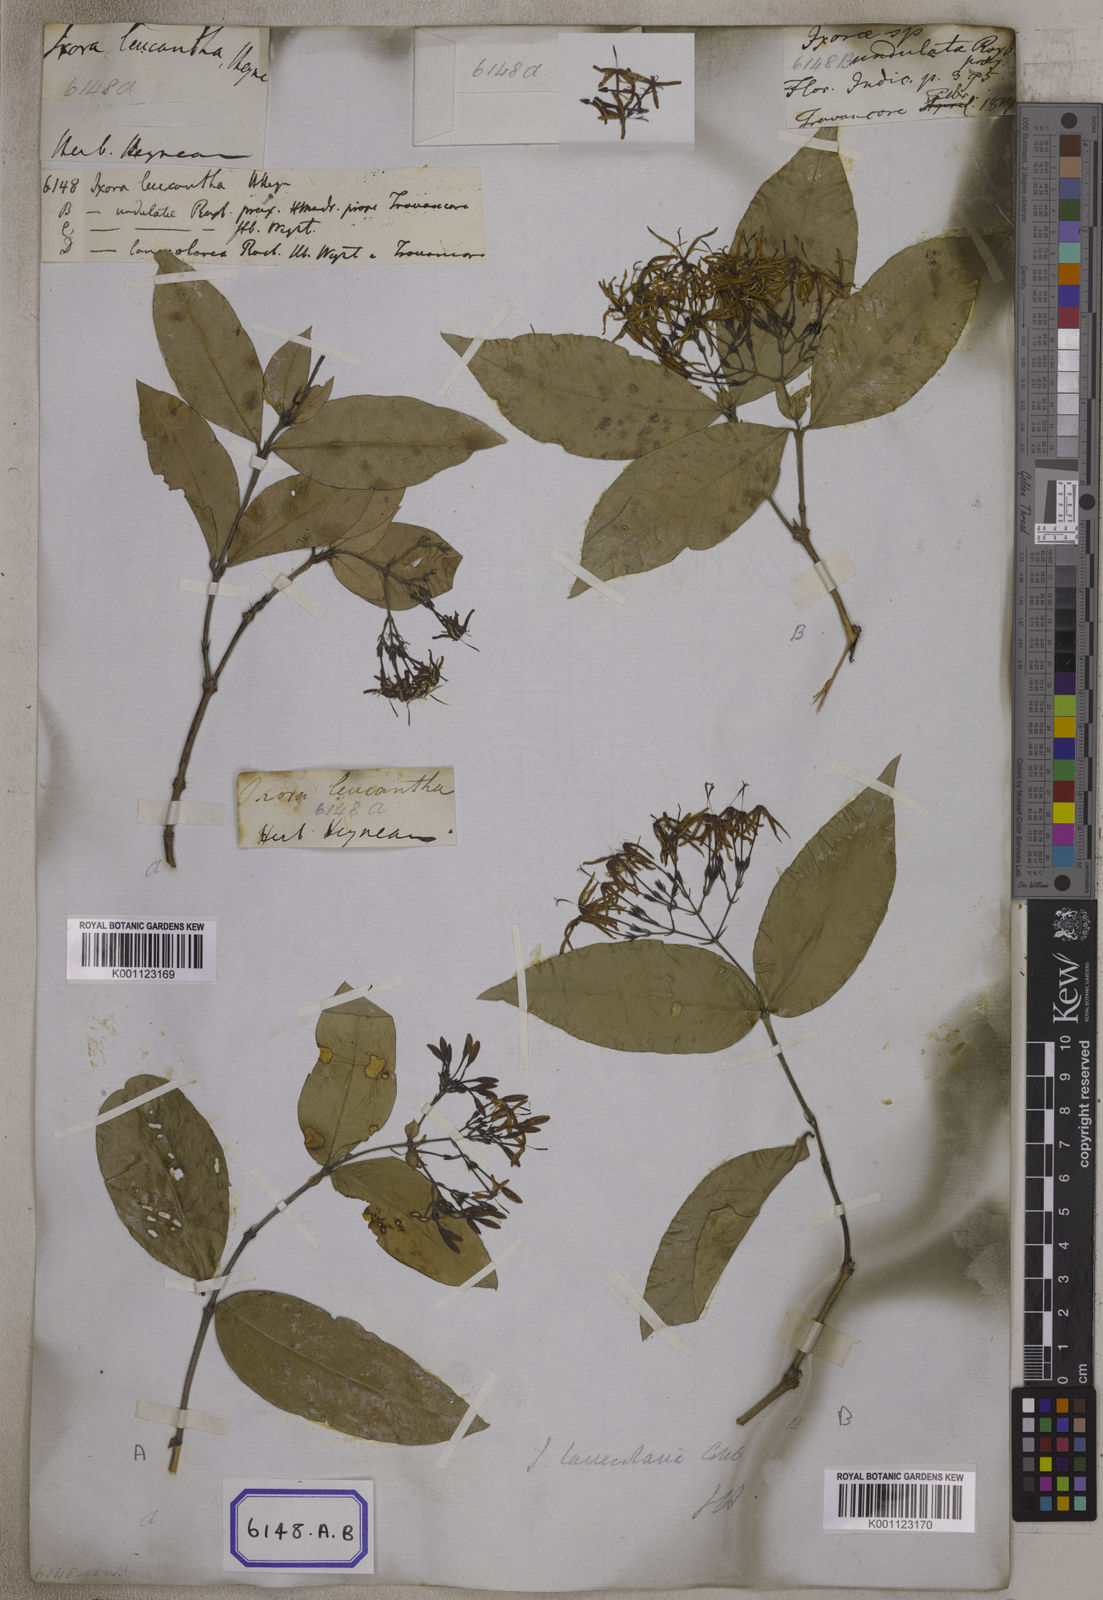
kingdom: Plantae
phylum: Tracheophyta
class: Magnoliopsida
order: Gentianales
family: Rubiaceae
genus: Ixora
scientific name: Ixora
